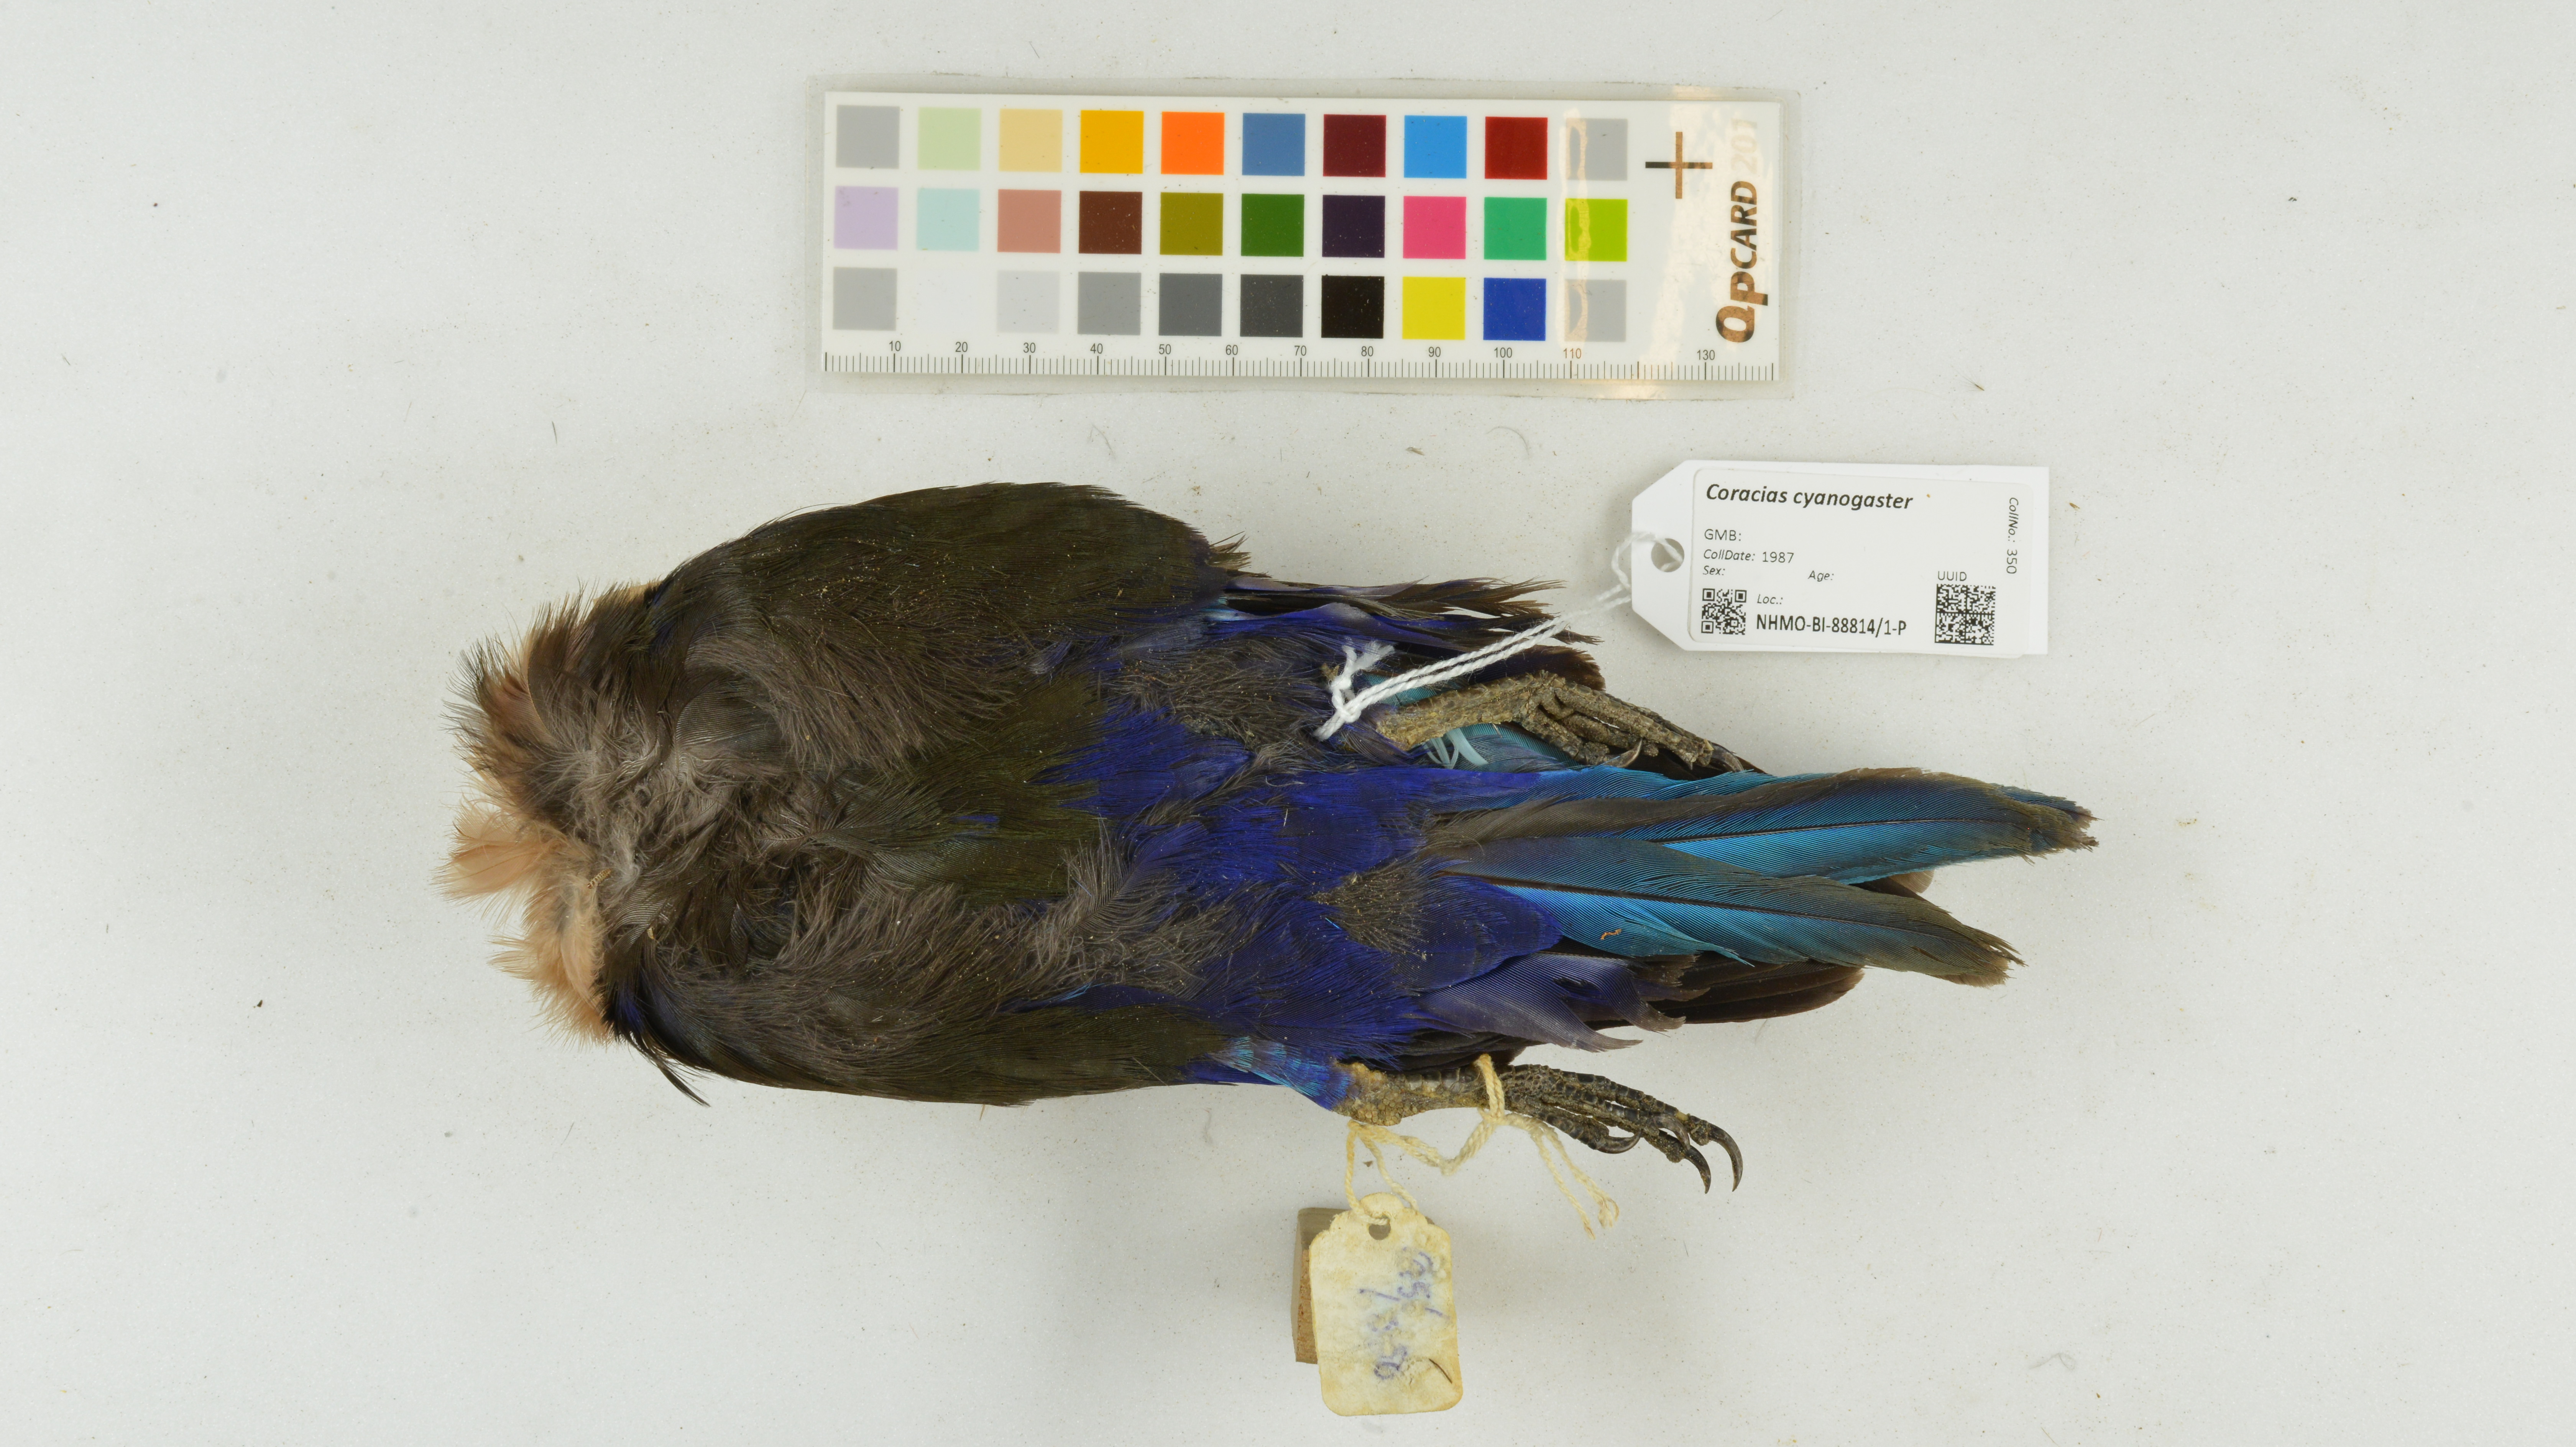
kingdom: Animalia
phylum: Chordata
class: Aves
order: Coraciiformes
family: Coraciidae
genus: Coracias
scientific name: Coracias cyanogaster
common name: Blue-bellied roller
